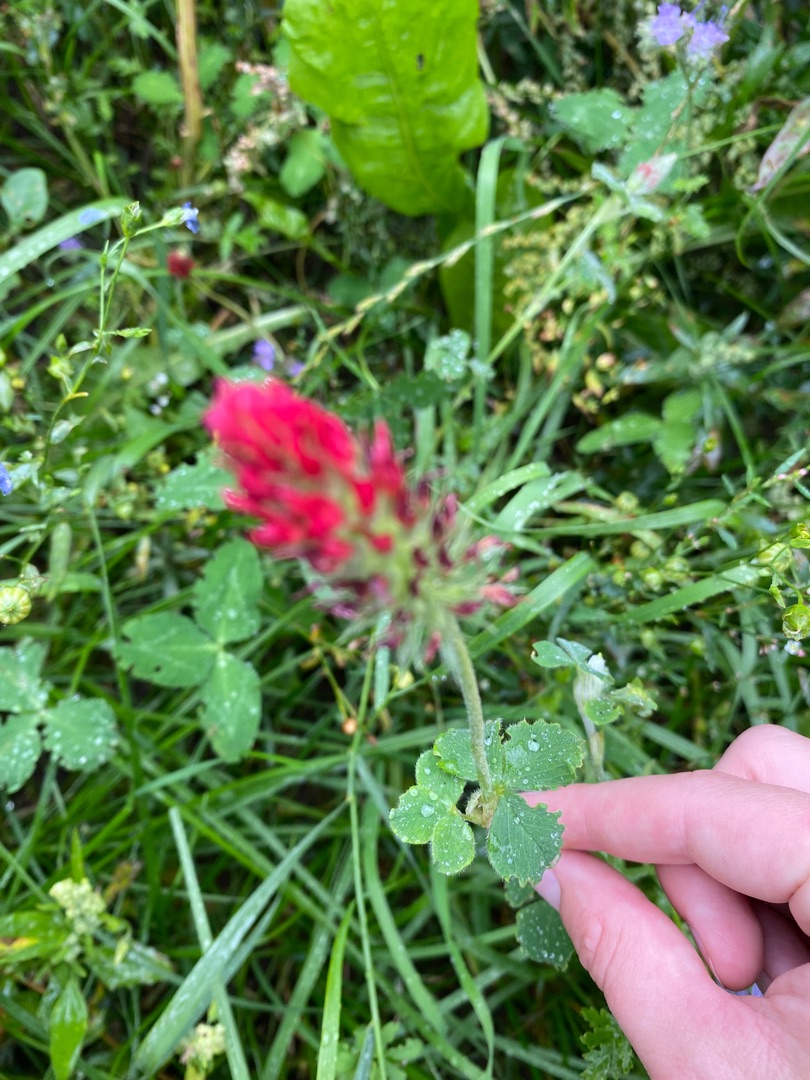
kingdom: Plantae
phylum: Tracheophyta
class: Magnoliopsida
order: Fabales
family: Fabaceae
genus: Trifolium
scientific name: Trifolium incarnatum
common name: Blod-kløver
